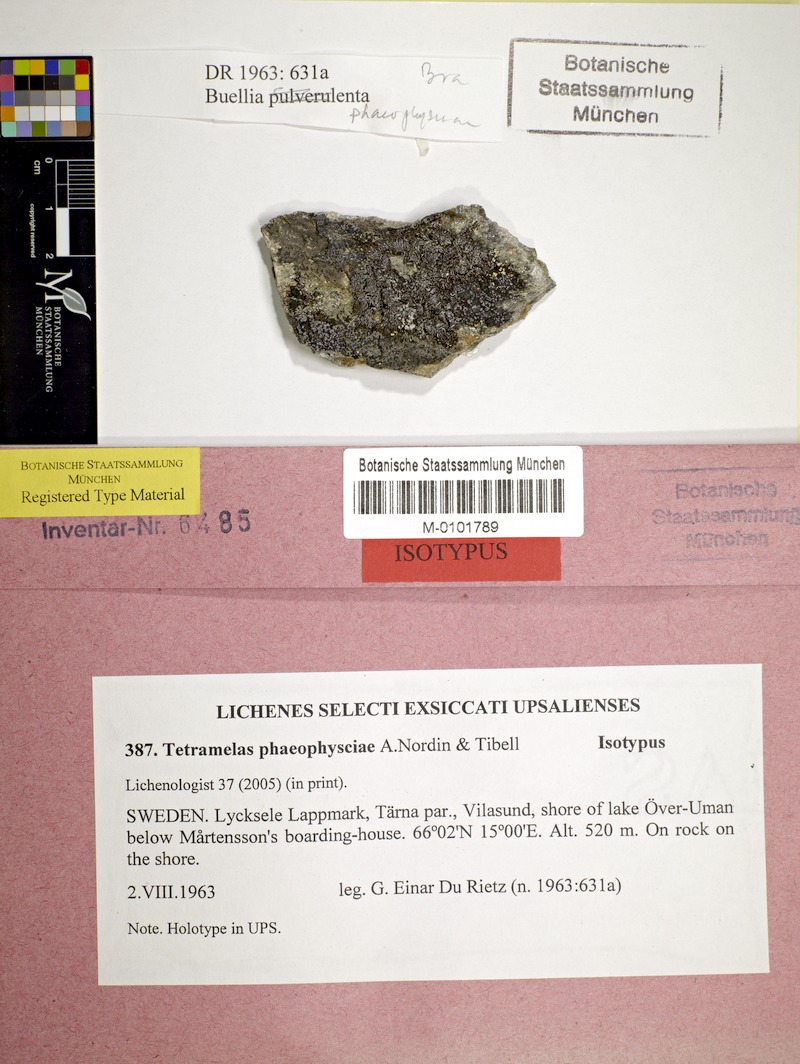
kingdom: Fungi
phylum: Ascomycota
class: Lecanoromycetes
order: Caliciales
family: Caliciaceae
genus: Tetramelas
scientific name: Tetramelas phaeophysciae
